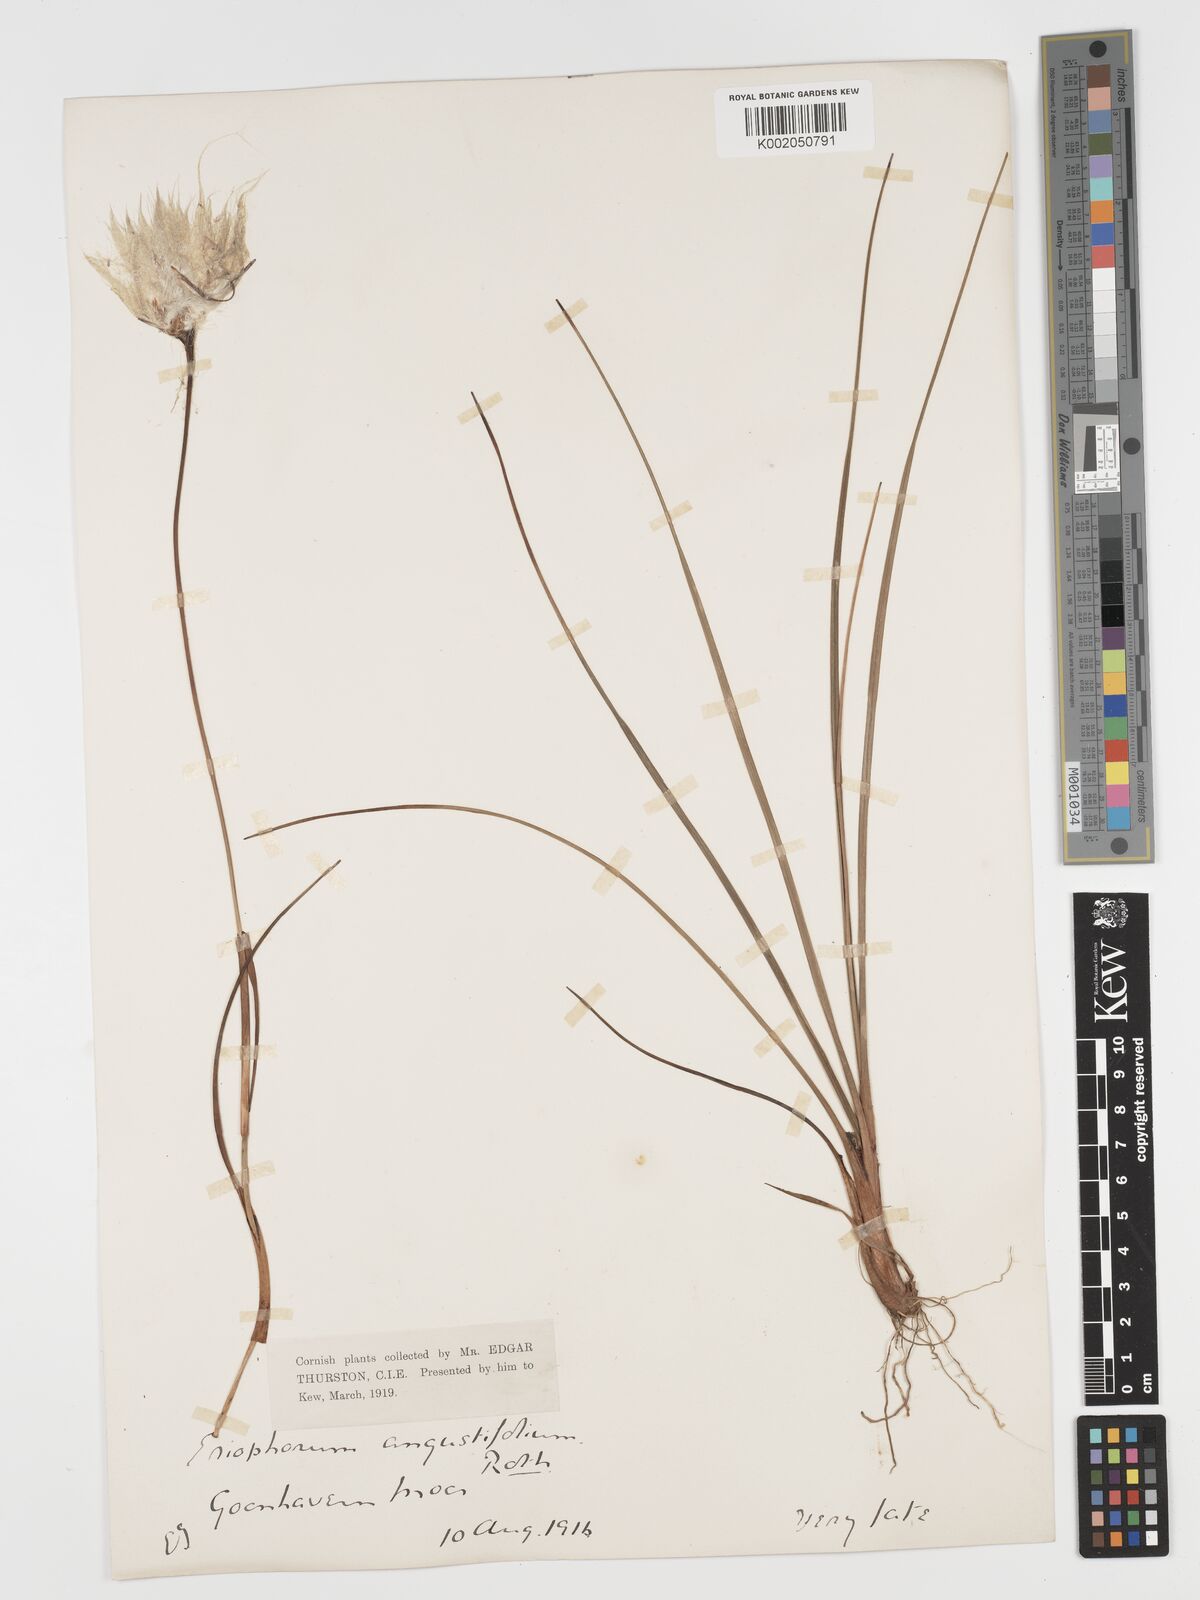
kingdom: Plantae
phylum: Tracheophyta
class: Liliopsida
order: Poales
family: Cyperaceae
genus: Eriophorum
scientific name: Eriophorum angustifolium
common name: Common cottongrass
